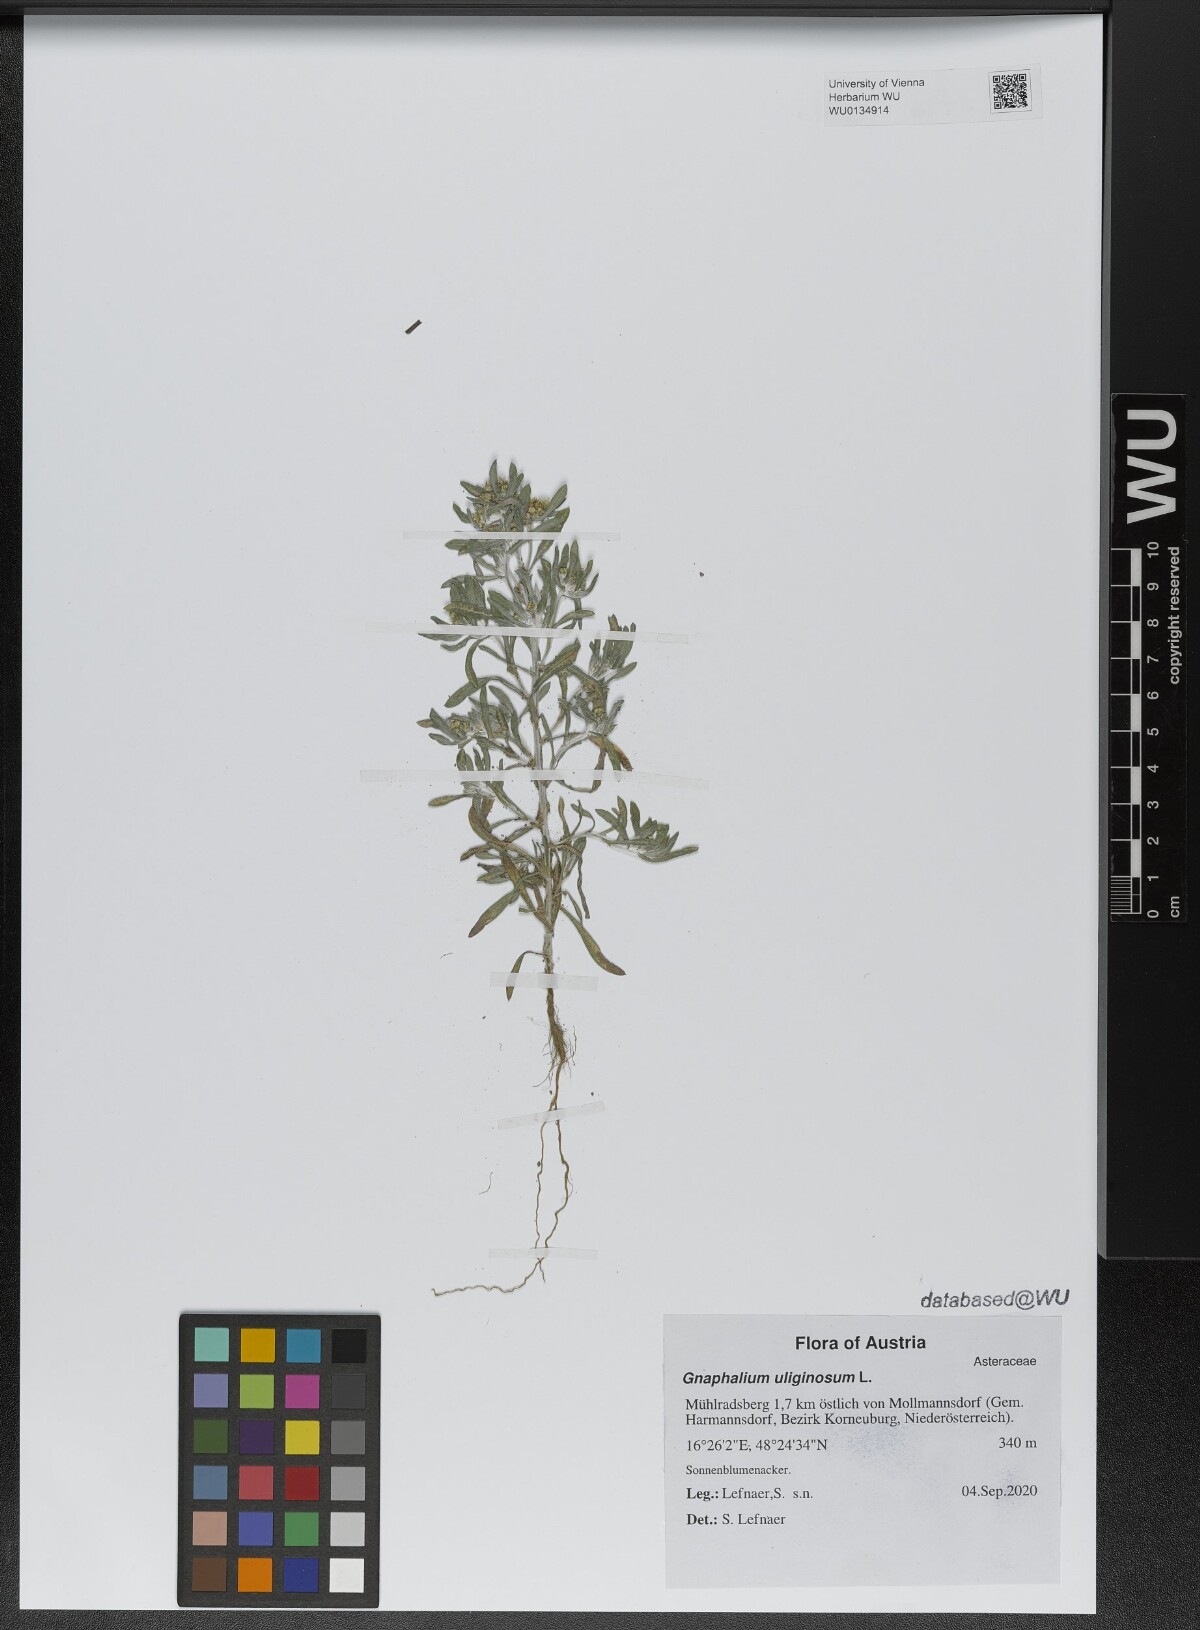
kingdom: Plantae
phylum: Tracheophyta
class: Magnoliopsida
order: Asterales
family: Asteraceae
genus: Gnaphalium
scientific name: Gnaphalium uliginosum
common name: Marsh cudweed
